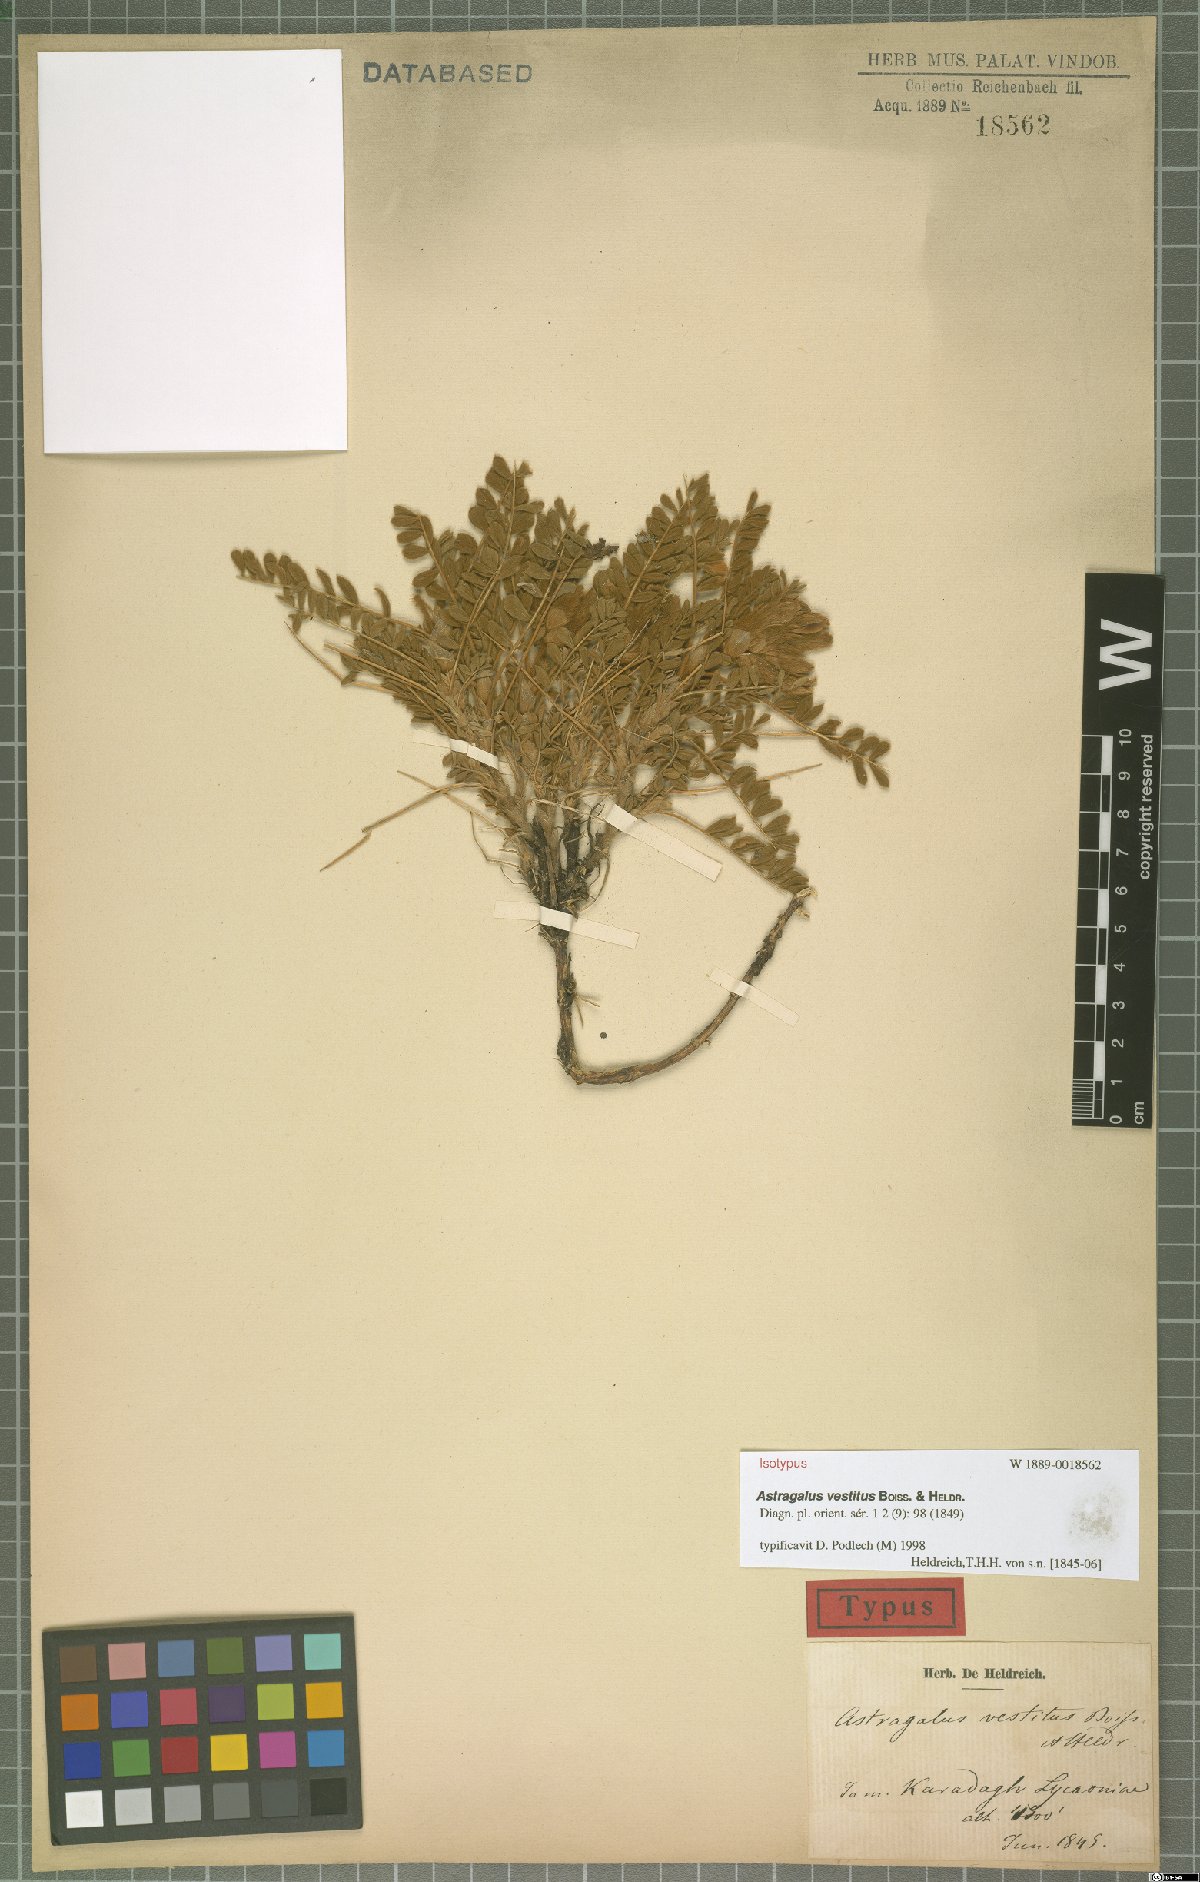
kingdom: Plantae
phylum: Tracheophyta
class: Magnoliopsida
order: Fabales
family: Fabaceae
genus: Astragalus
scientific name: Astragalus vestitus
